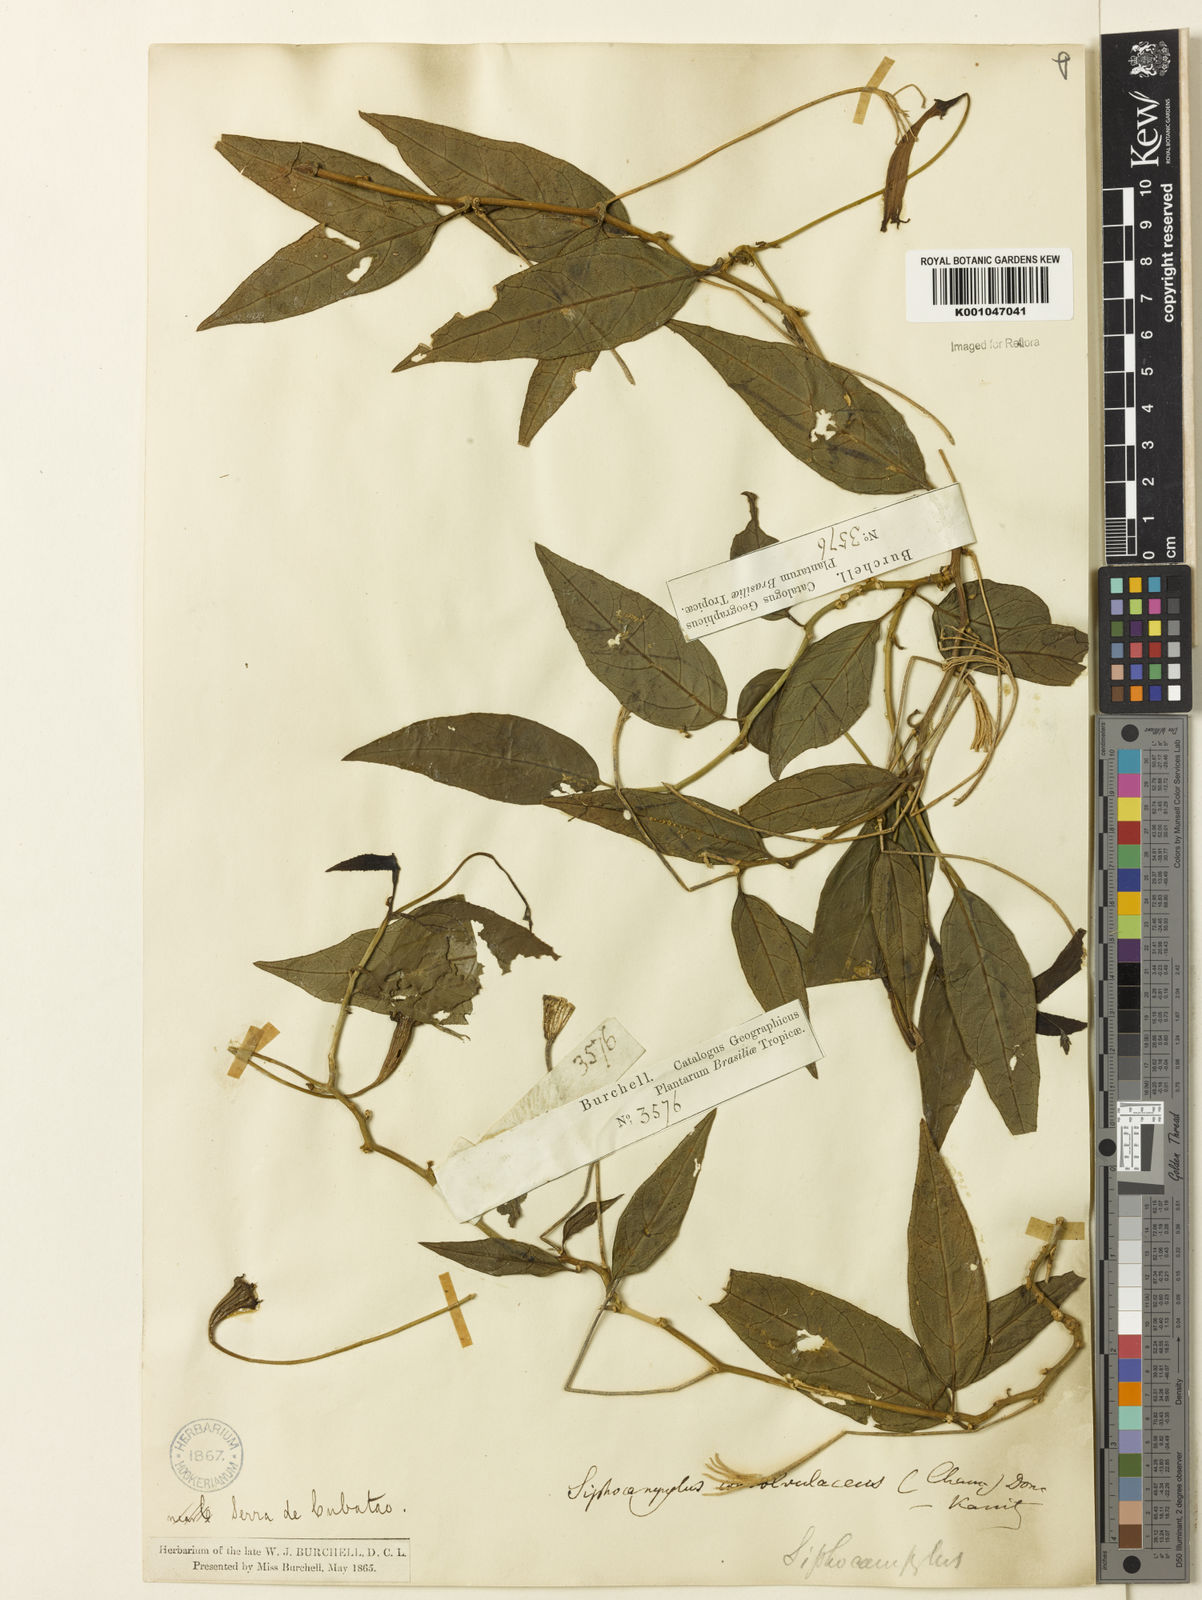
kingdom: Plantae
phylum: Tracheophyta
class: Magnoliopsida
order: Asterales
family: Campanulaceae
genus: Siphocampylus
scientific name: Siphocampylus convolvulaceus
